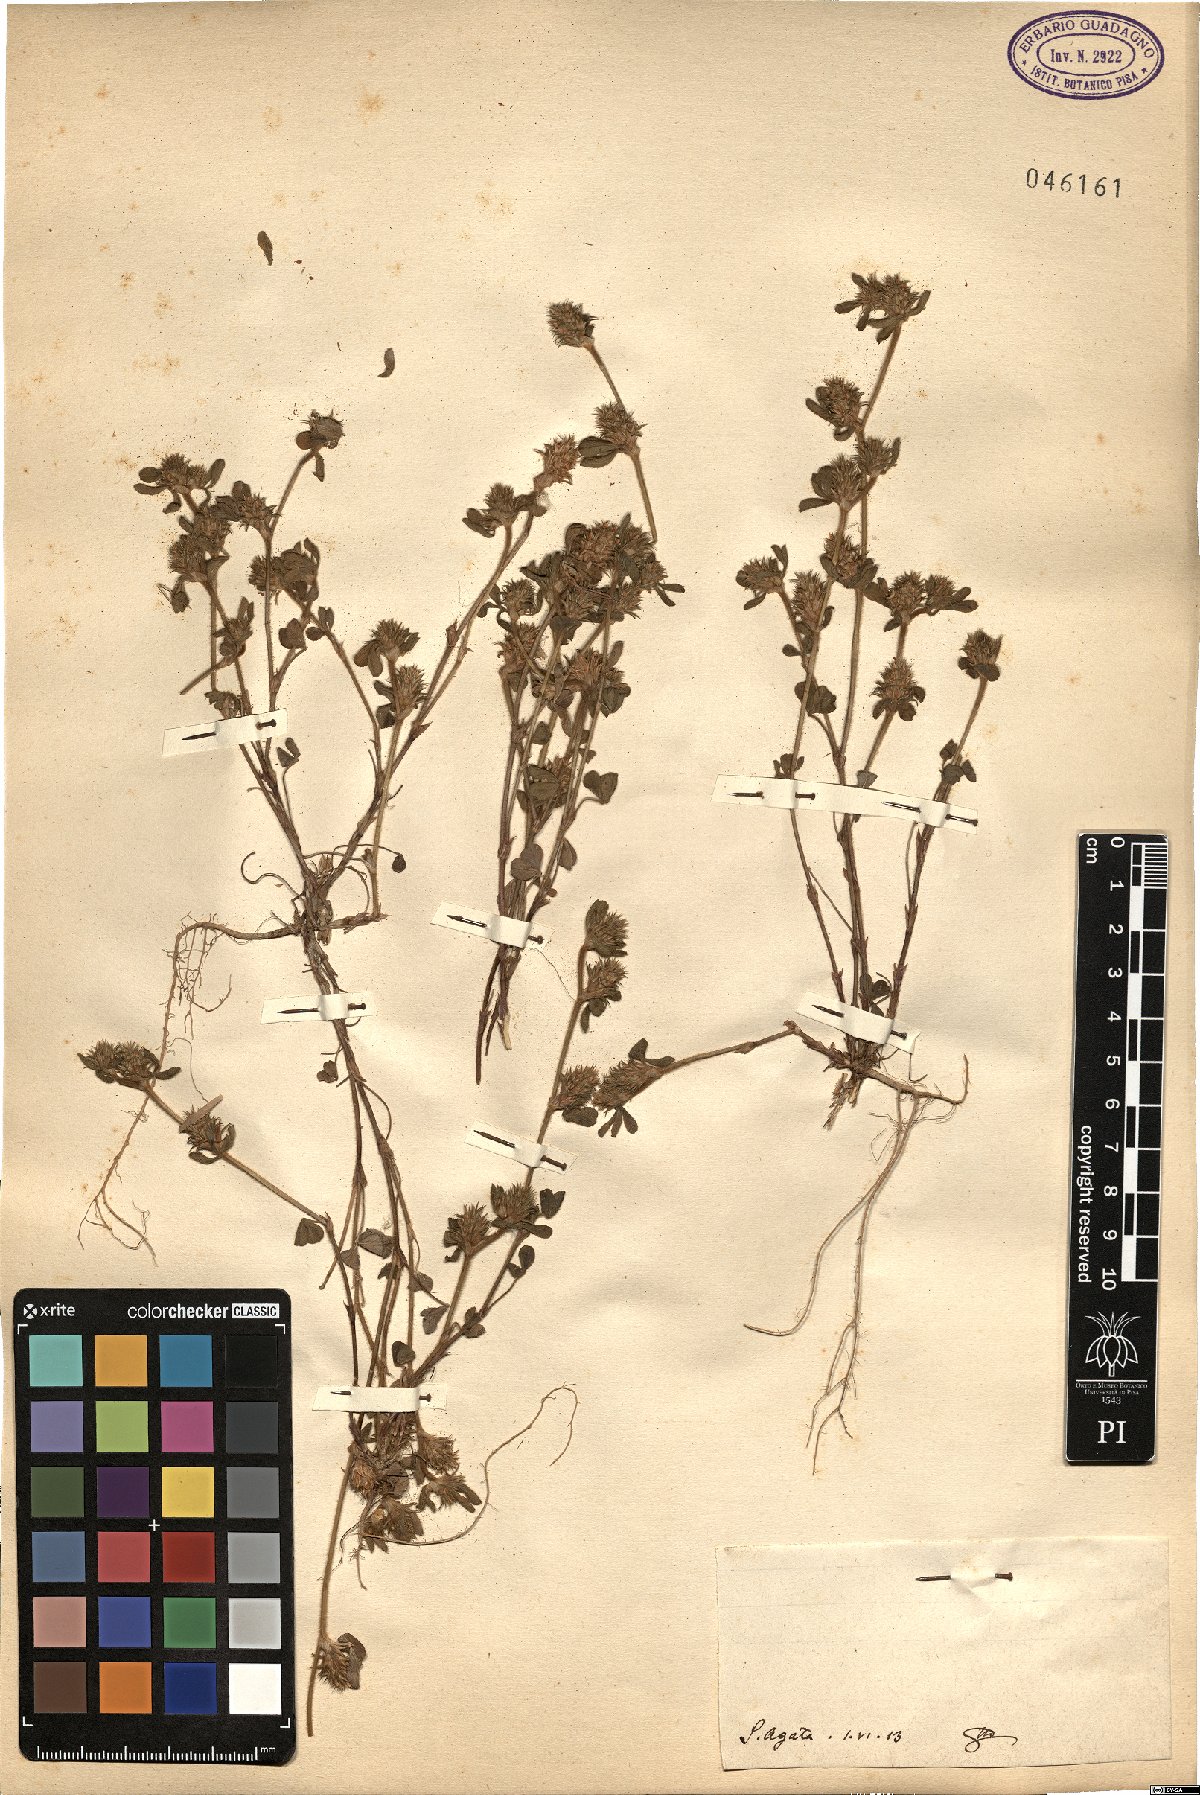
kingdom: Plantae
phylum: Tracheophyta
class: Magnoliopsida
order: Fabales
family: Fabaceae
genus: Trifolium
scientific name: Trifolium
